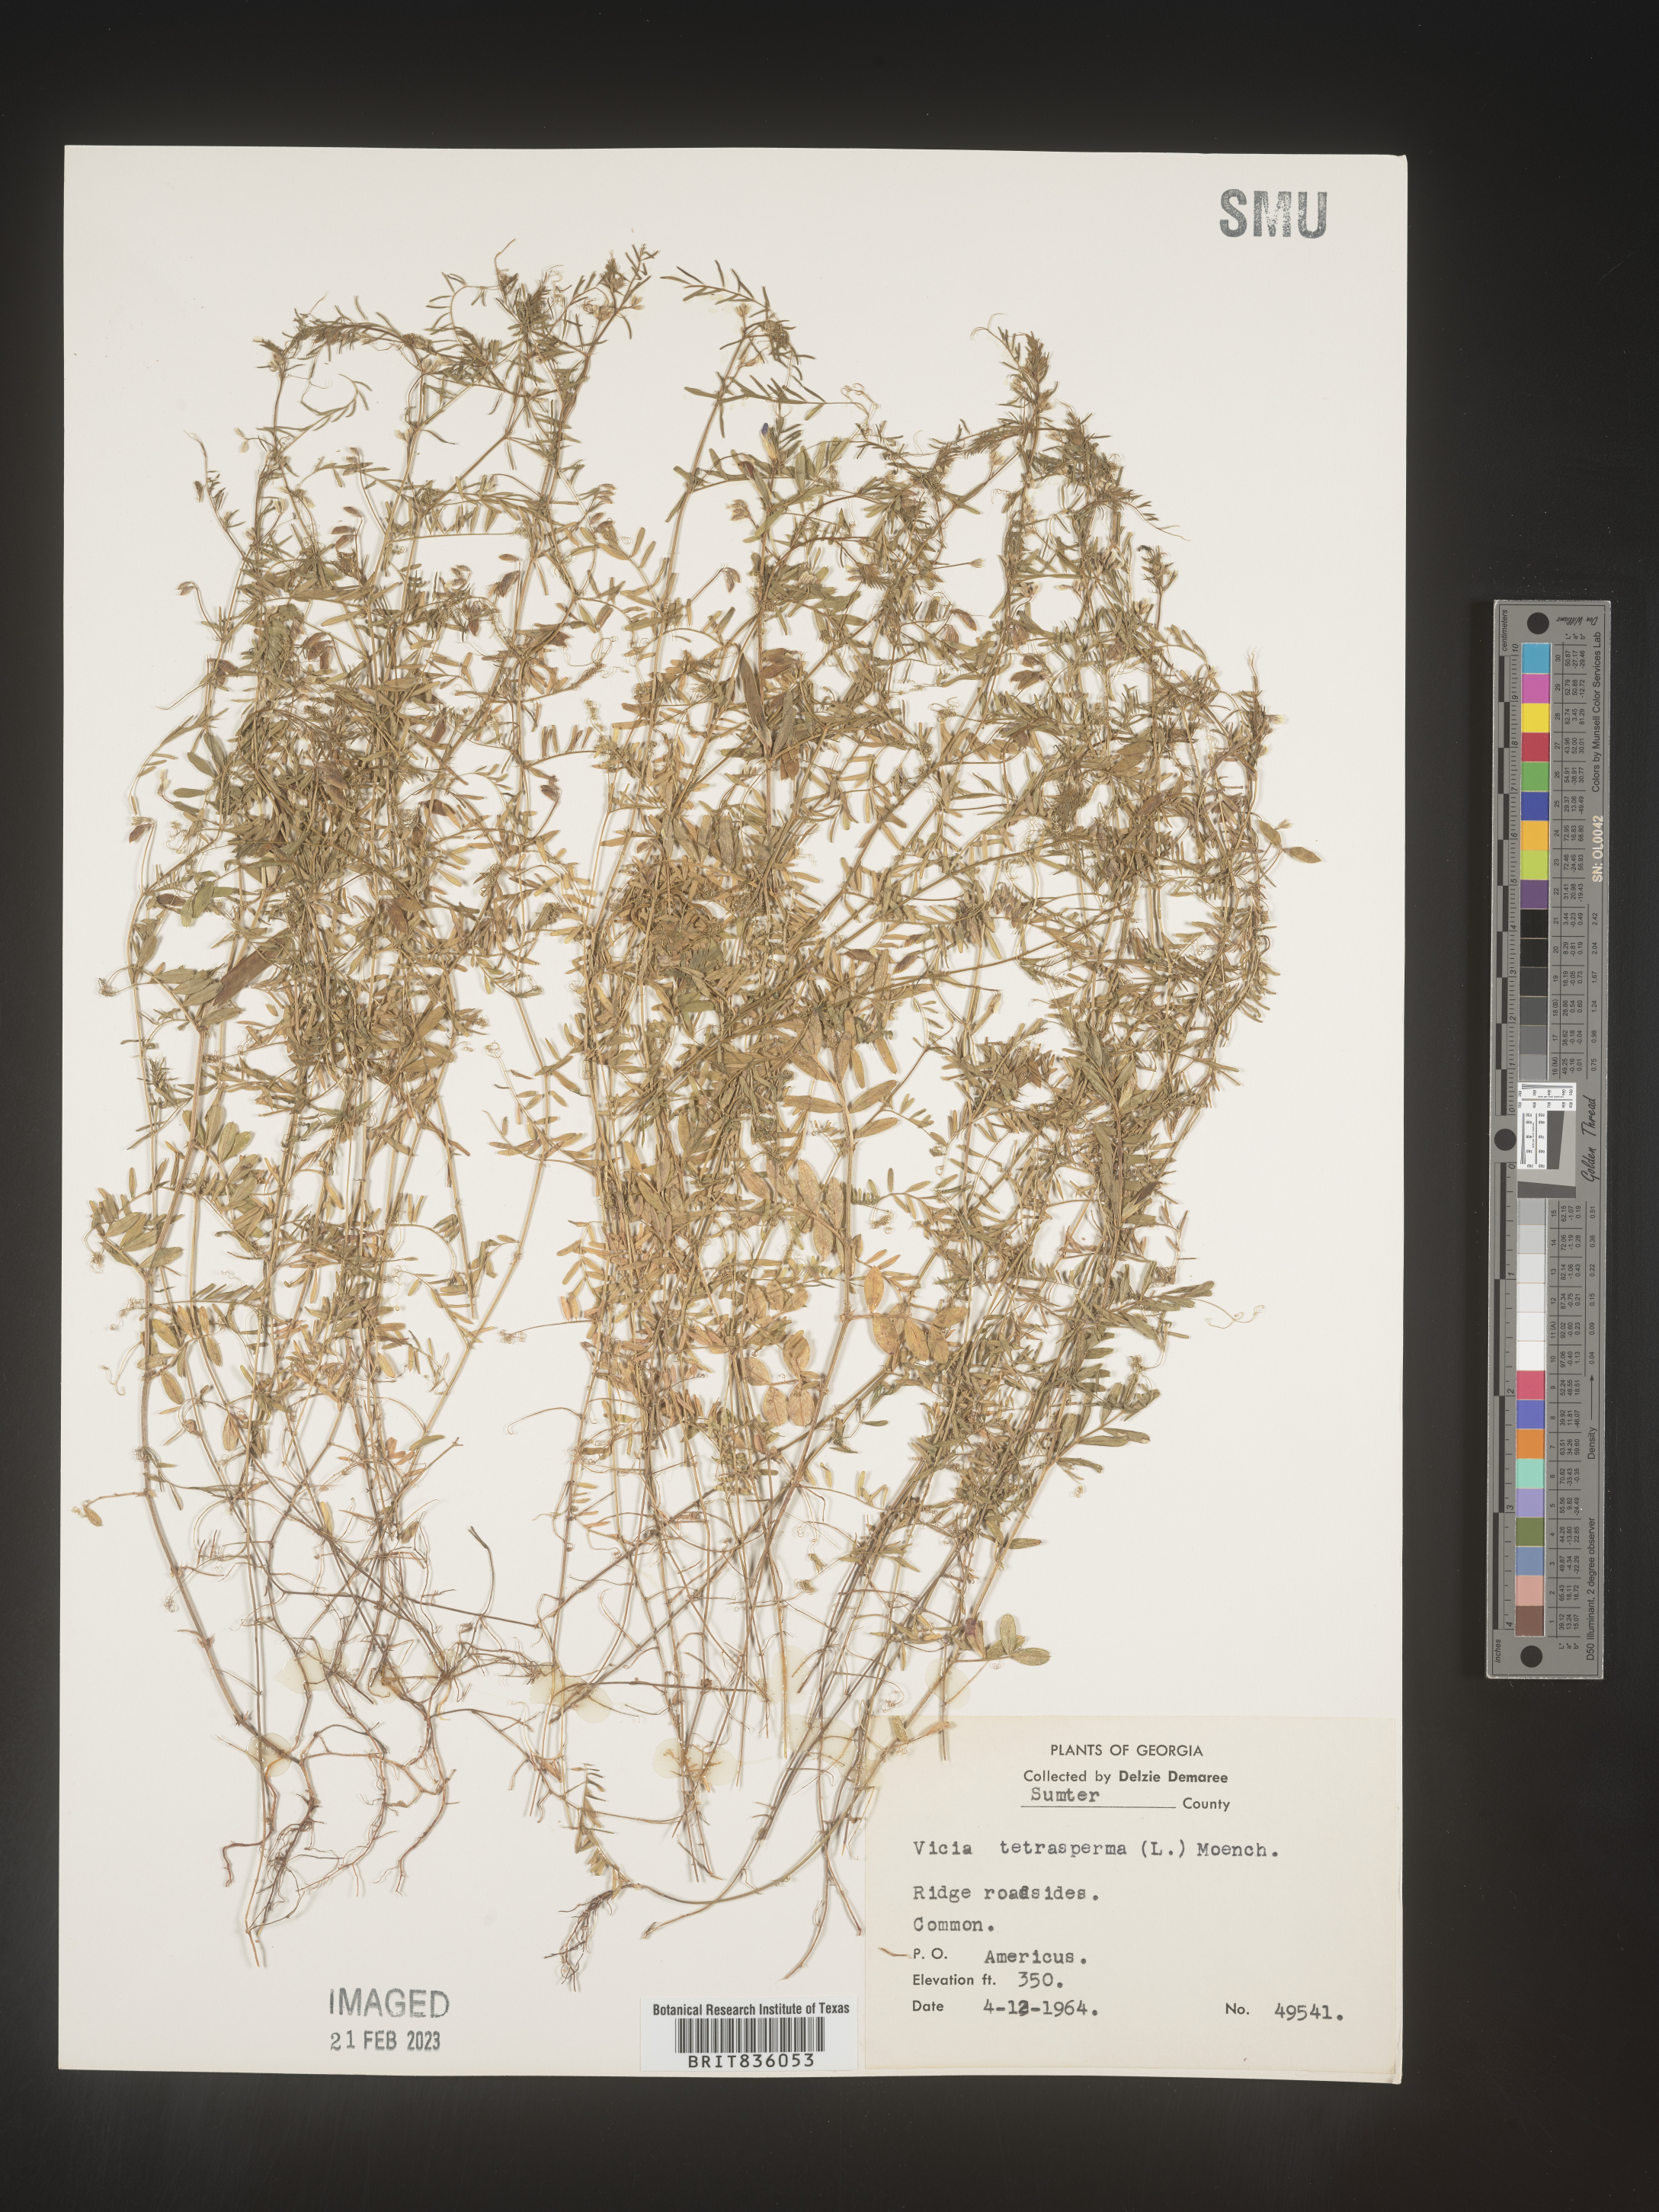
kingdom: Plantae
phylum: Tracheophyta
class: Magnoliopsida
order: Fabales
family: Fabaceae
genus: Vicia
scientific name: Vicia tetrasperma
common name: Smooth tare
